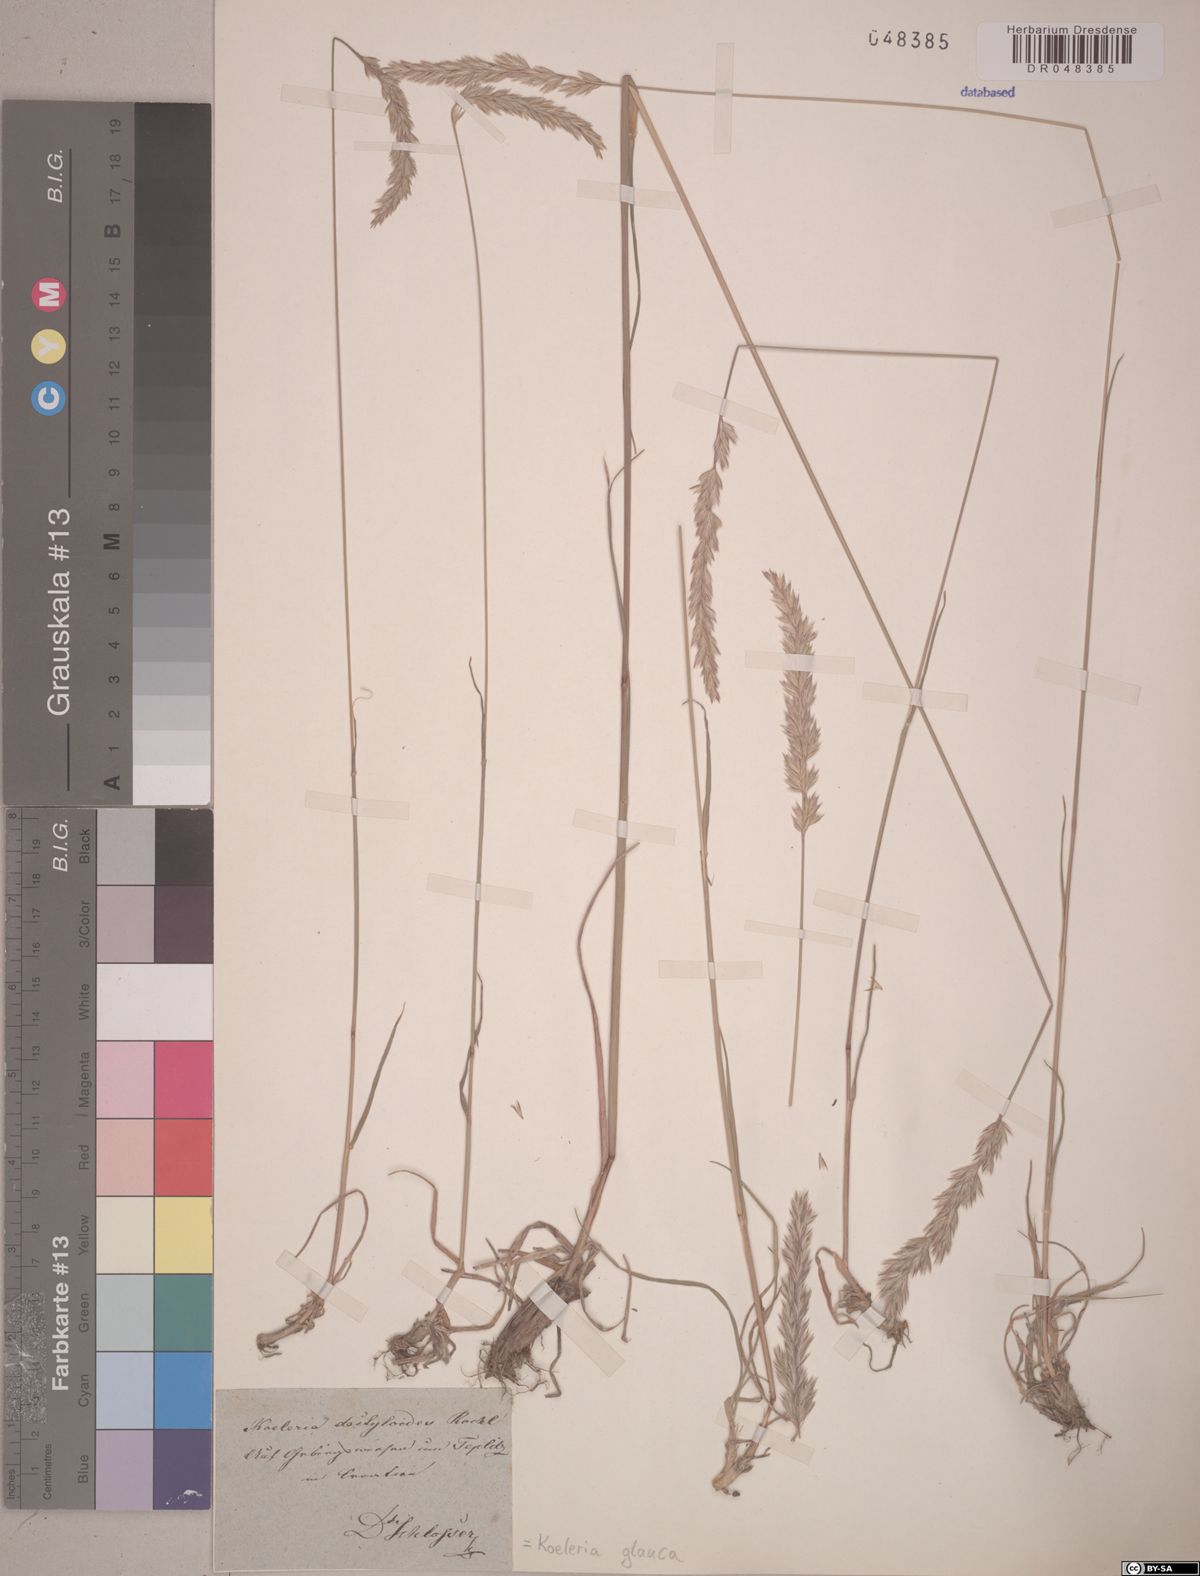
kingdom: Plantae
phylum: Tracheophyta
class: Liliopsida
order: Poales
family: Poaceae
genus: Koeleria
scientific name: Koeleria glauca
